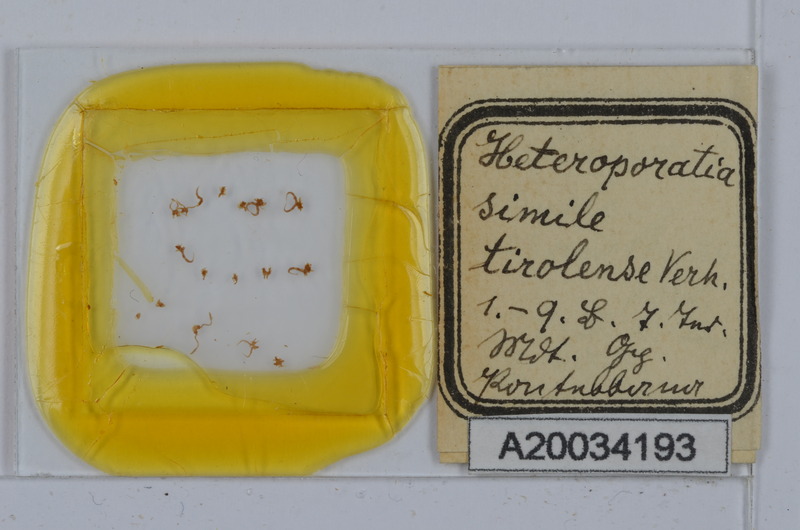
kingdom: Animalia
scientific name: Animalia
